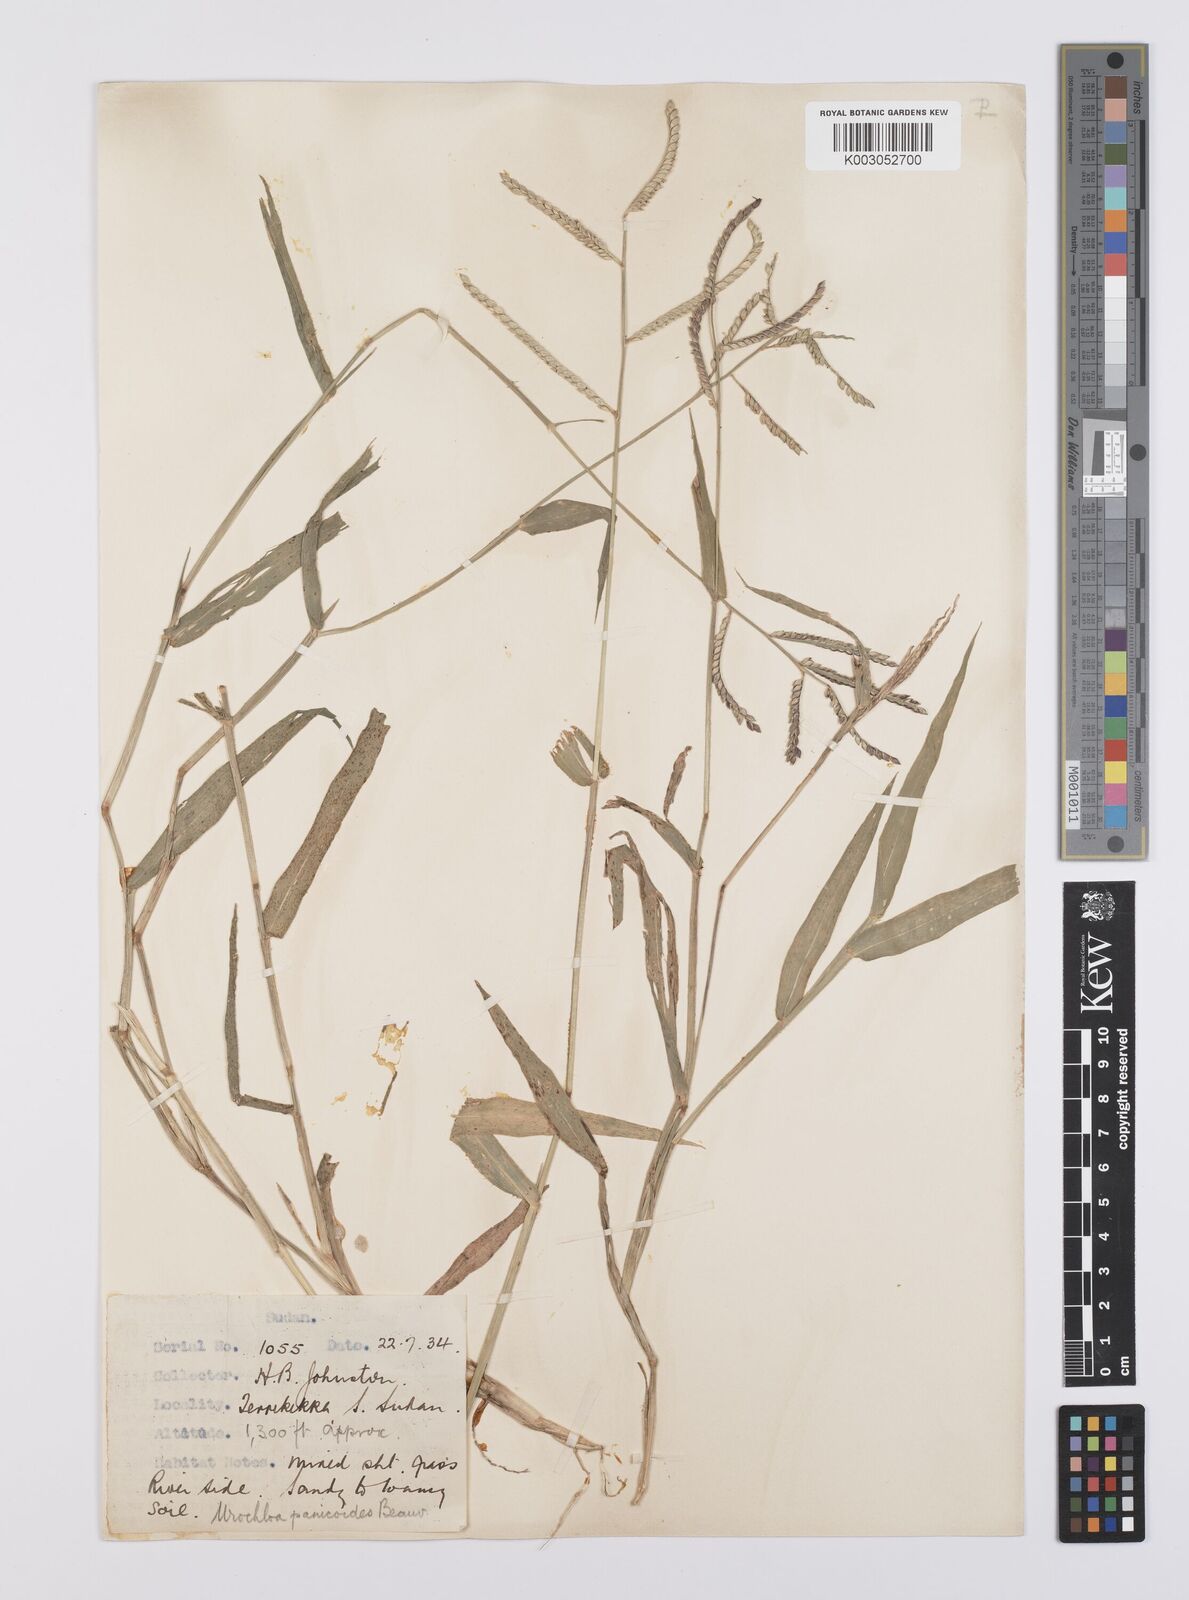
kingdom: Plantae
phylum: Tracheophyta
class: Liliopsida
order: Poales
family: Poaceae
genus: Urochloa
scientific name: Urochloa panicoides
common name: Sharp-flowered signal-grass
